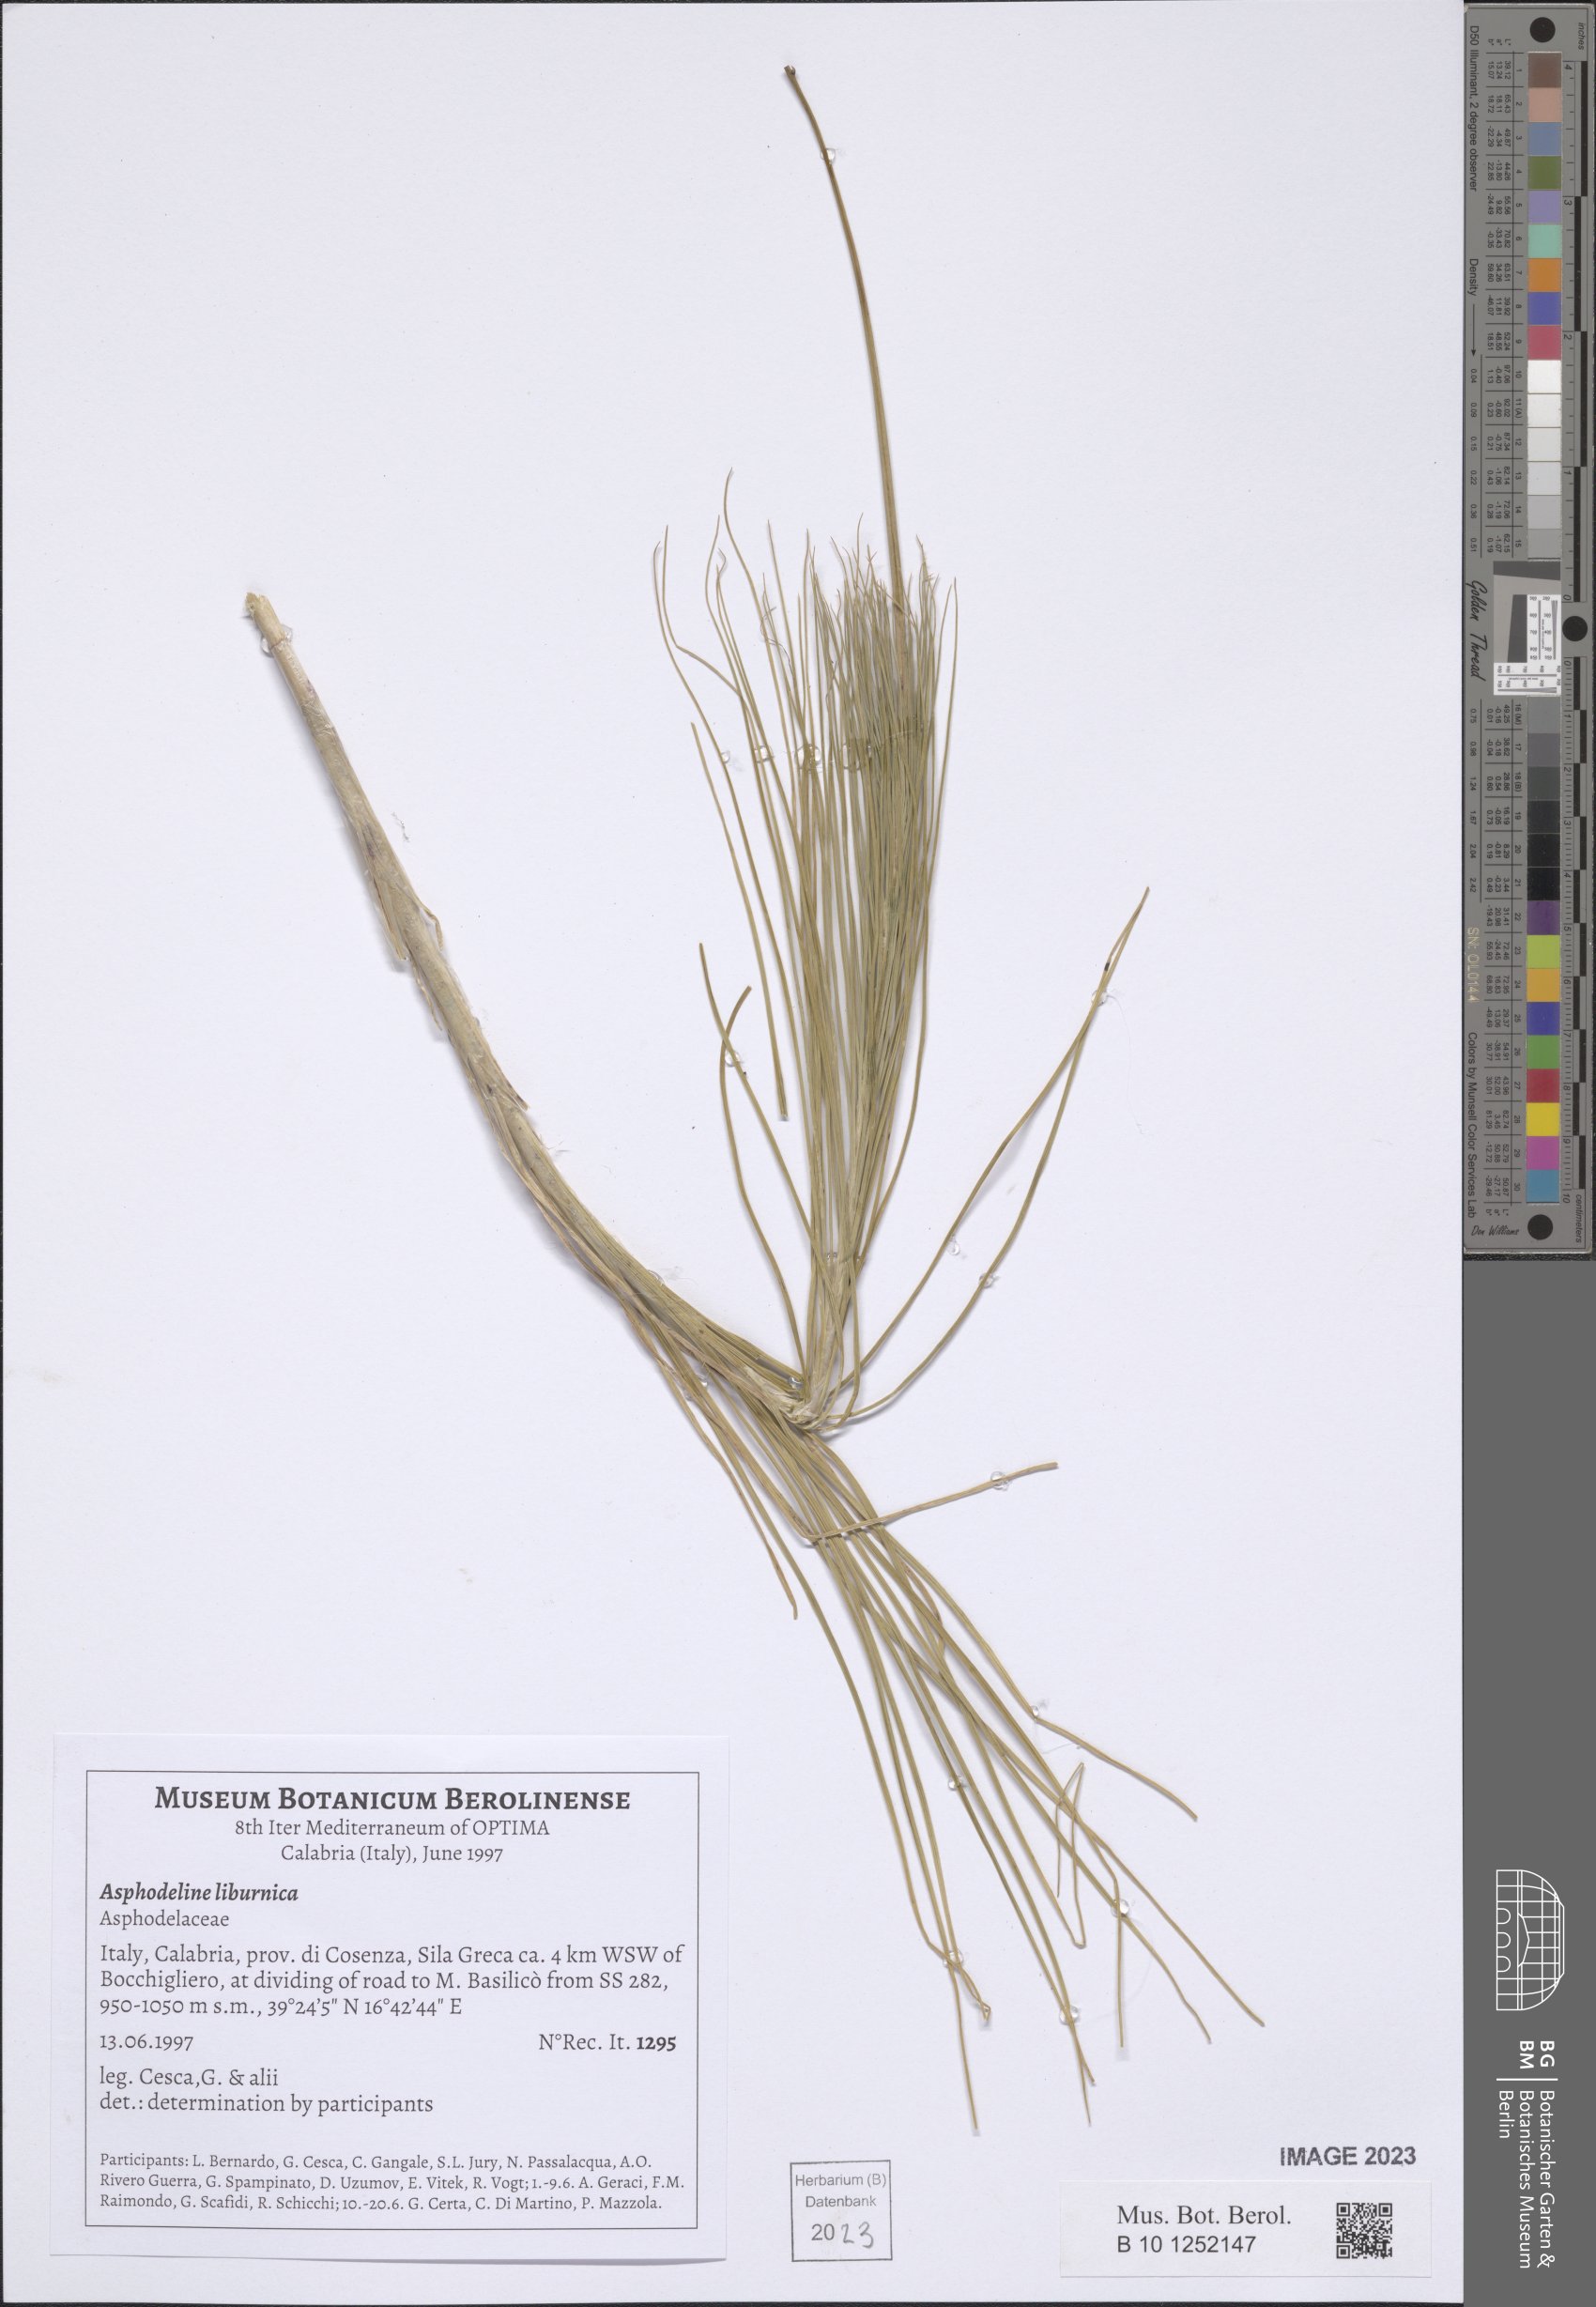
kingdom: Plantae
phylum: Tracheophyta
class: Liliopsida
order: Asparagales
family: Asphodelaceae
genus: Asphodeline
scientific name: Asphodeline liburnica
